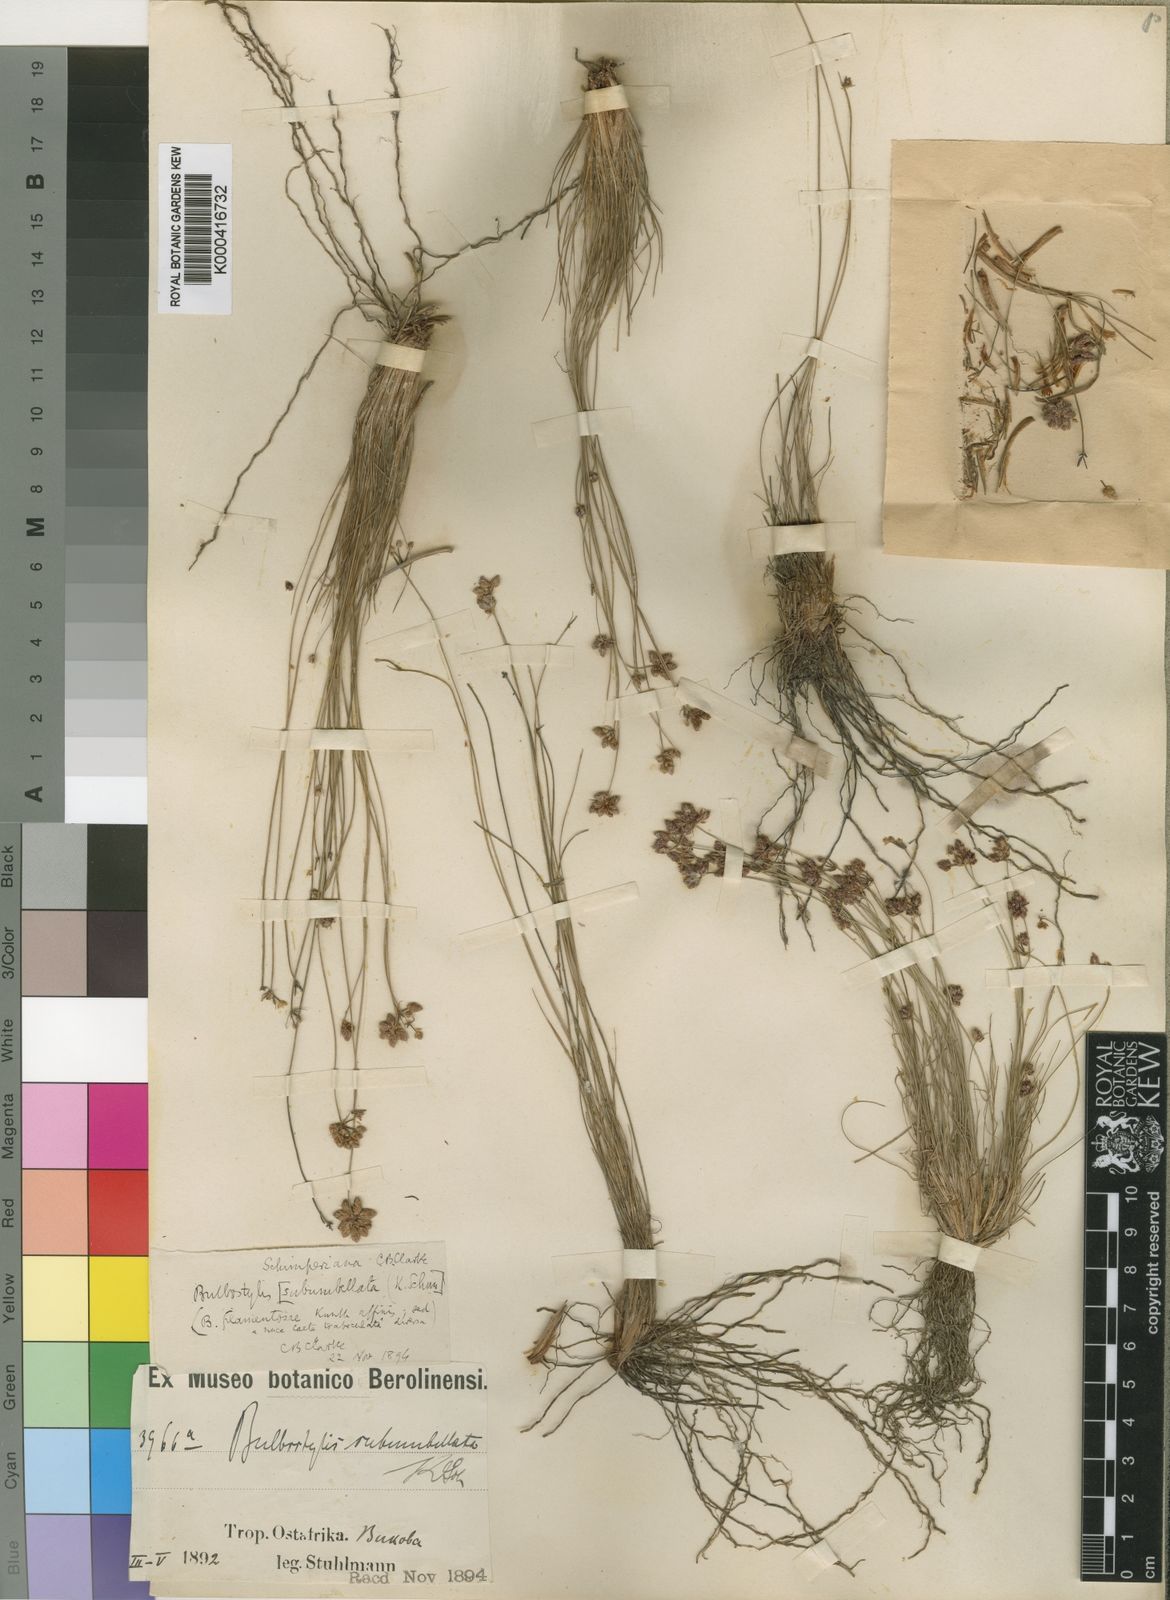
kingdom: Plantae
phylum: Tracheophyta
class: Liliopsida
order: Poales
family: Cyperaceae
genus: Bulbostylis
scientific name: Bulbostylis
